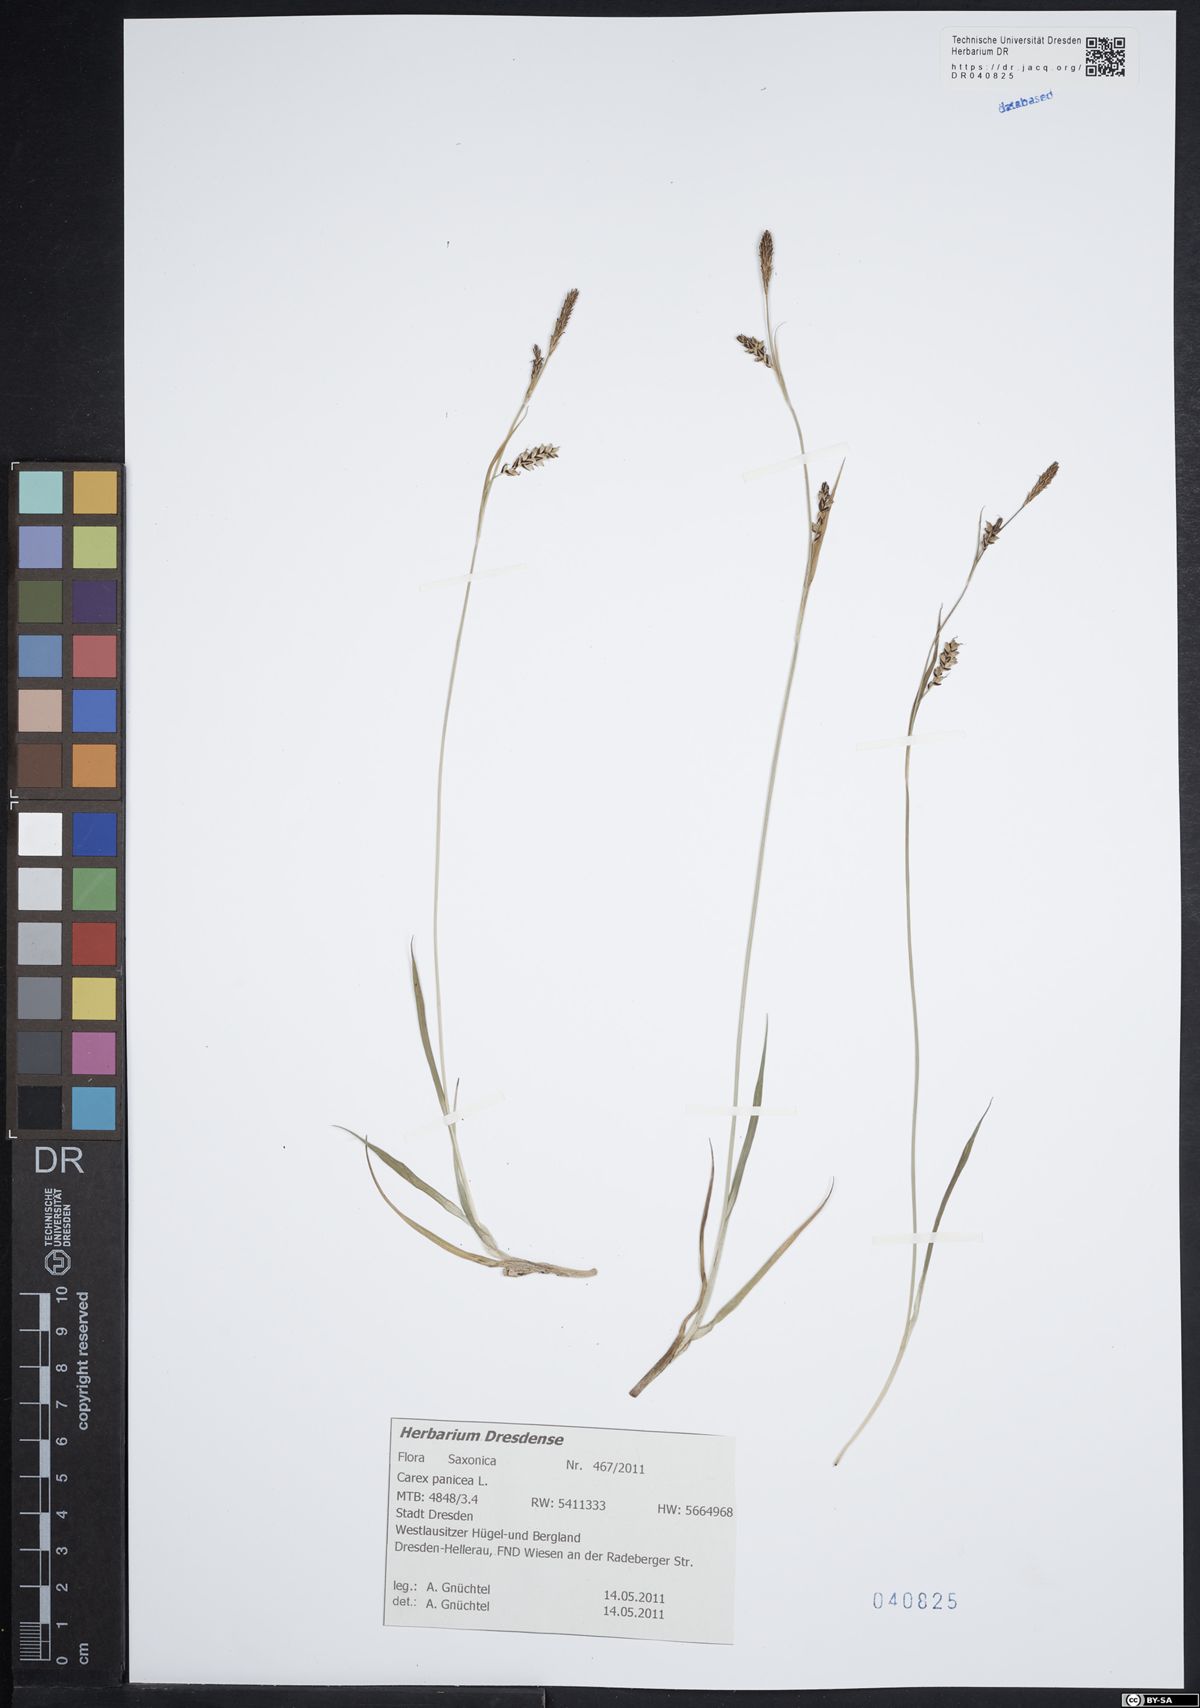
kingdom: Plantae
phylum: Tracheophyta
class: Liliopsida
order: Poales
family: Cyperaceae
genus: Carex
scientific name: Carex panicea
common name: Carnation sedge
